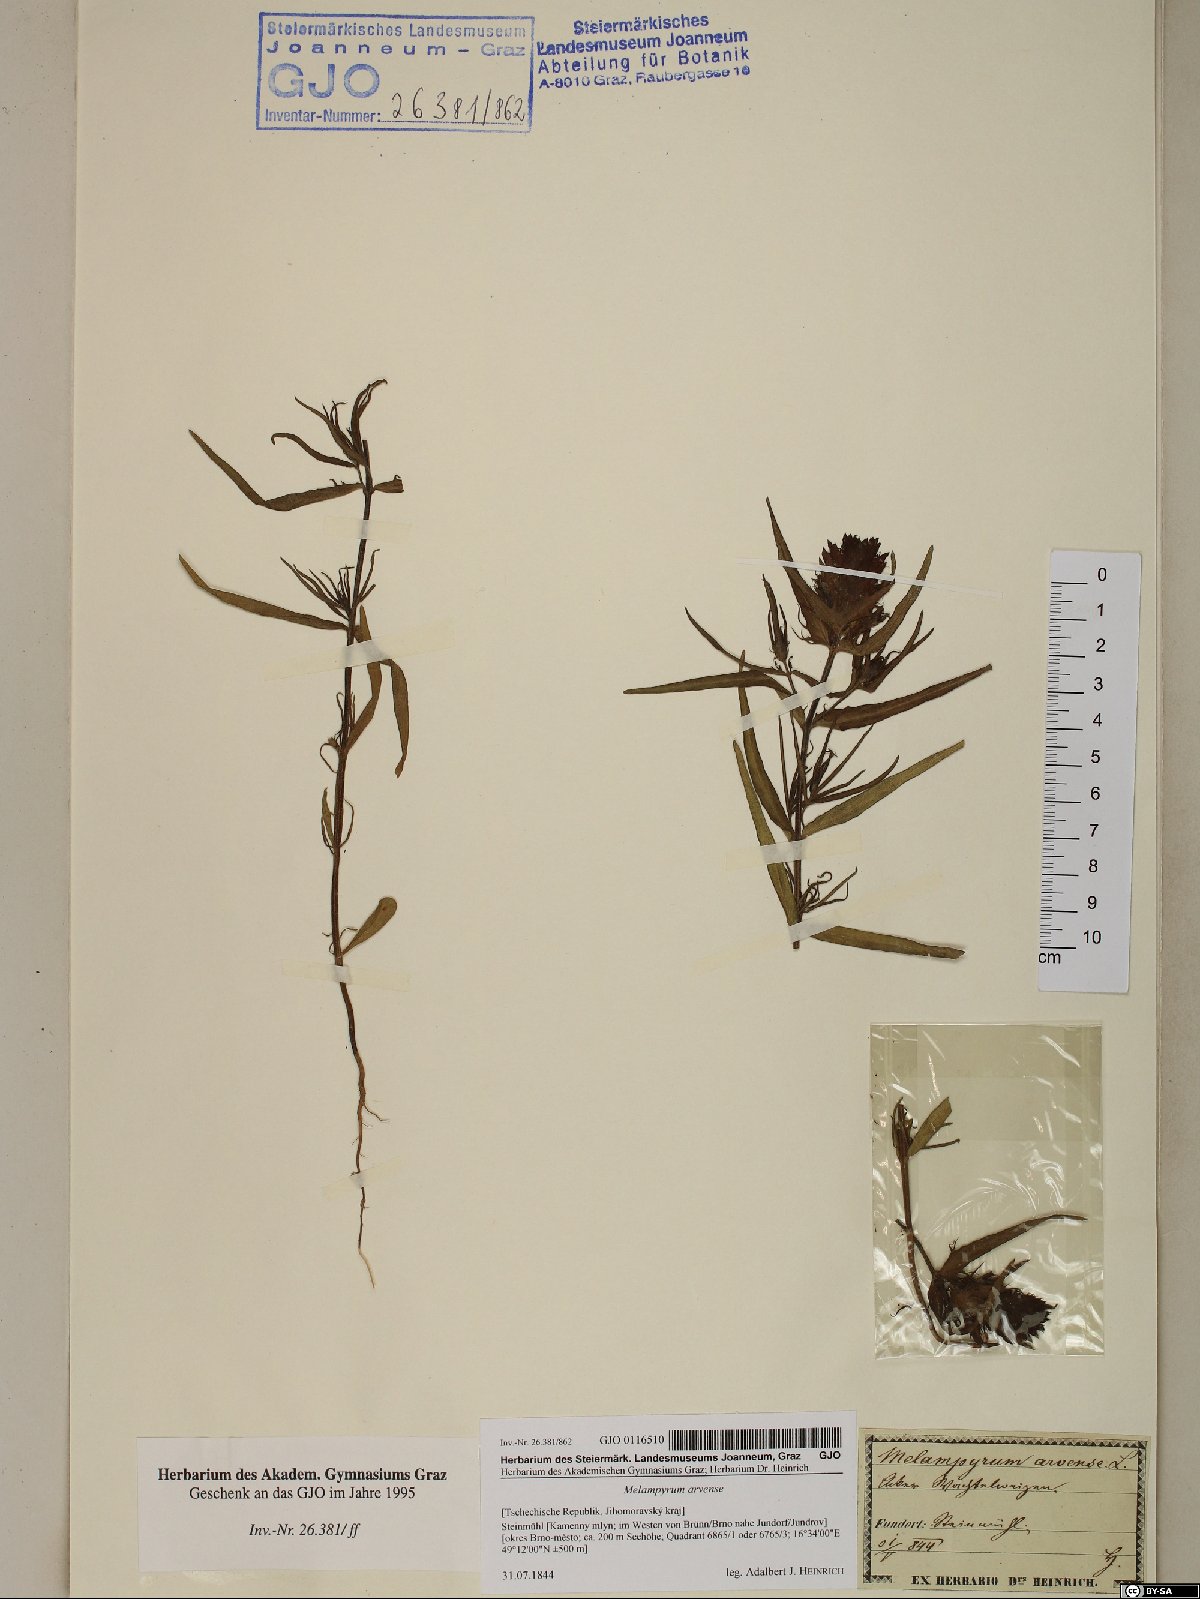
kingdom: Plantae
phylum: Tracheophyta
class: Magnoliopsida
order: Lamiales
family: Orobanchaceae
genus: Melampyrum
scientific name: Melampyrum arvense
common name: Field cow-wheat
